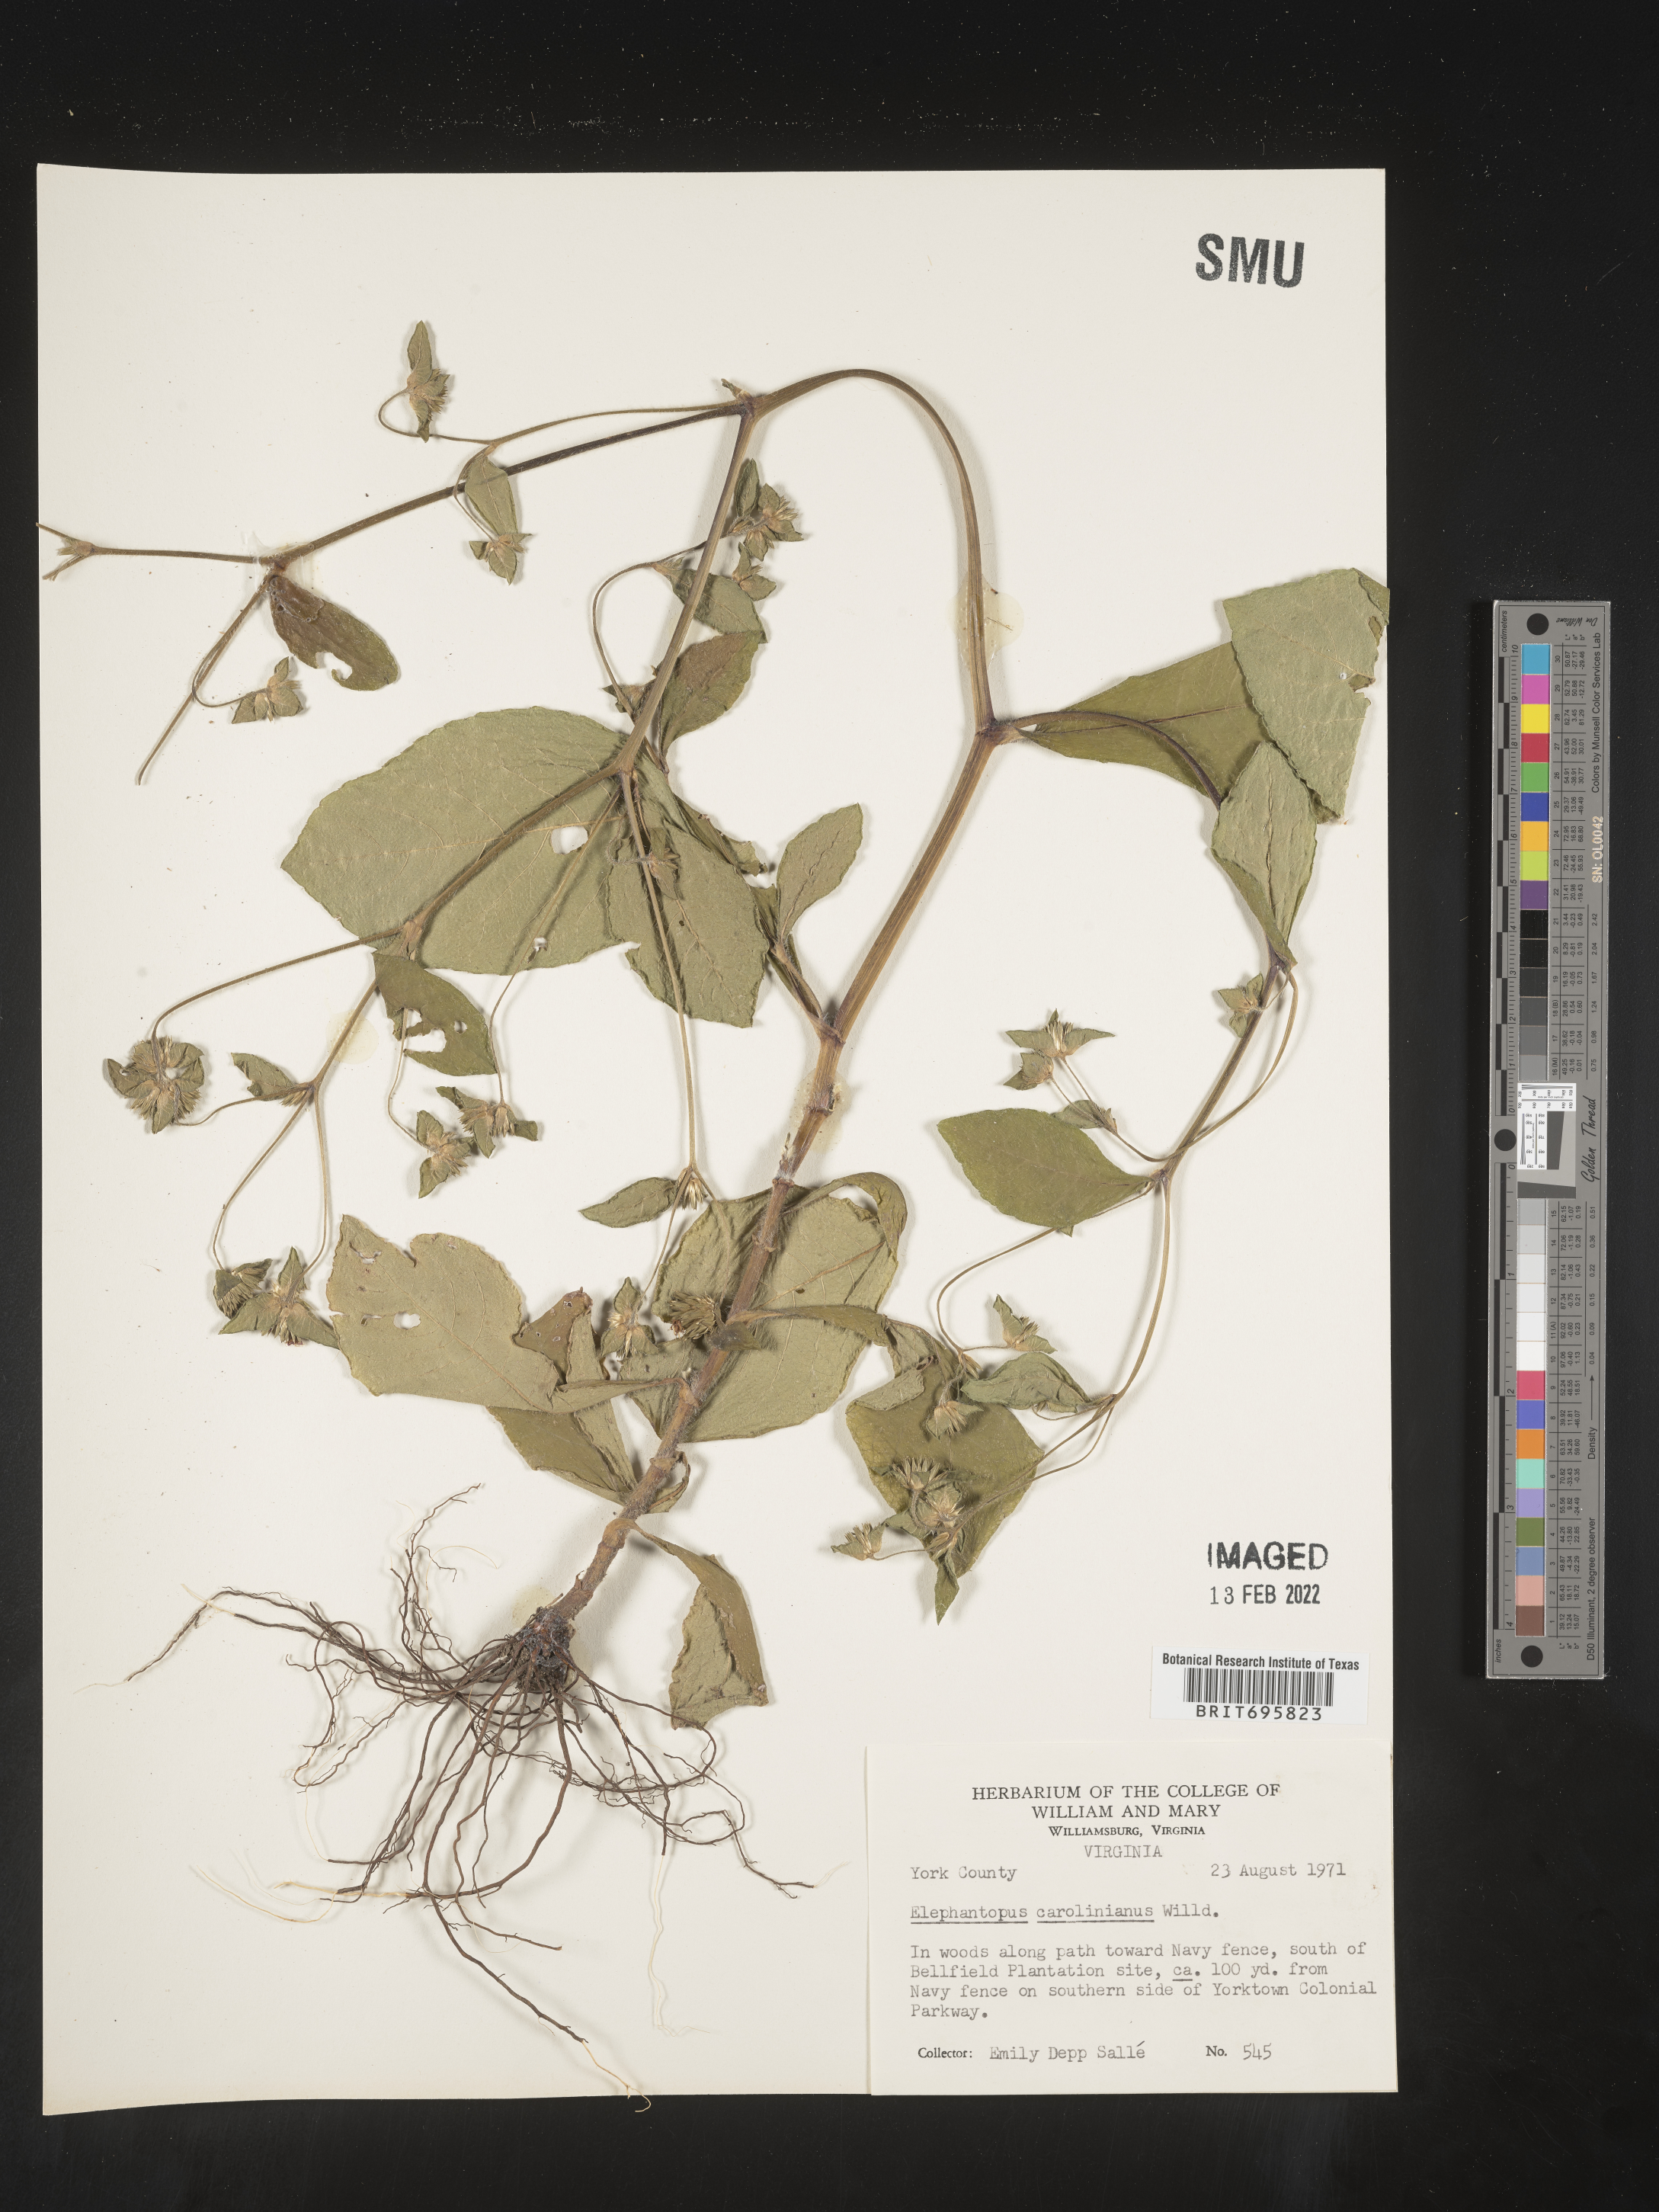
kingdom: Plantae
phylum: Tracheophyta
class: Magnoliopsida
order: Asterales
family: Asteraceae
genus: Elephantopus
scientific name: Elephantopus carolinianus
